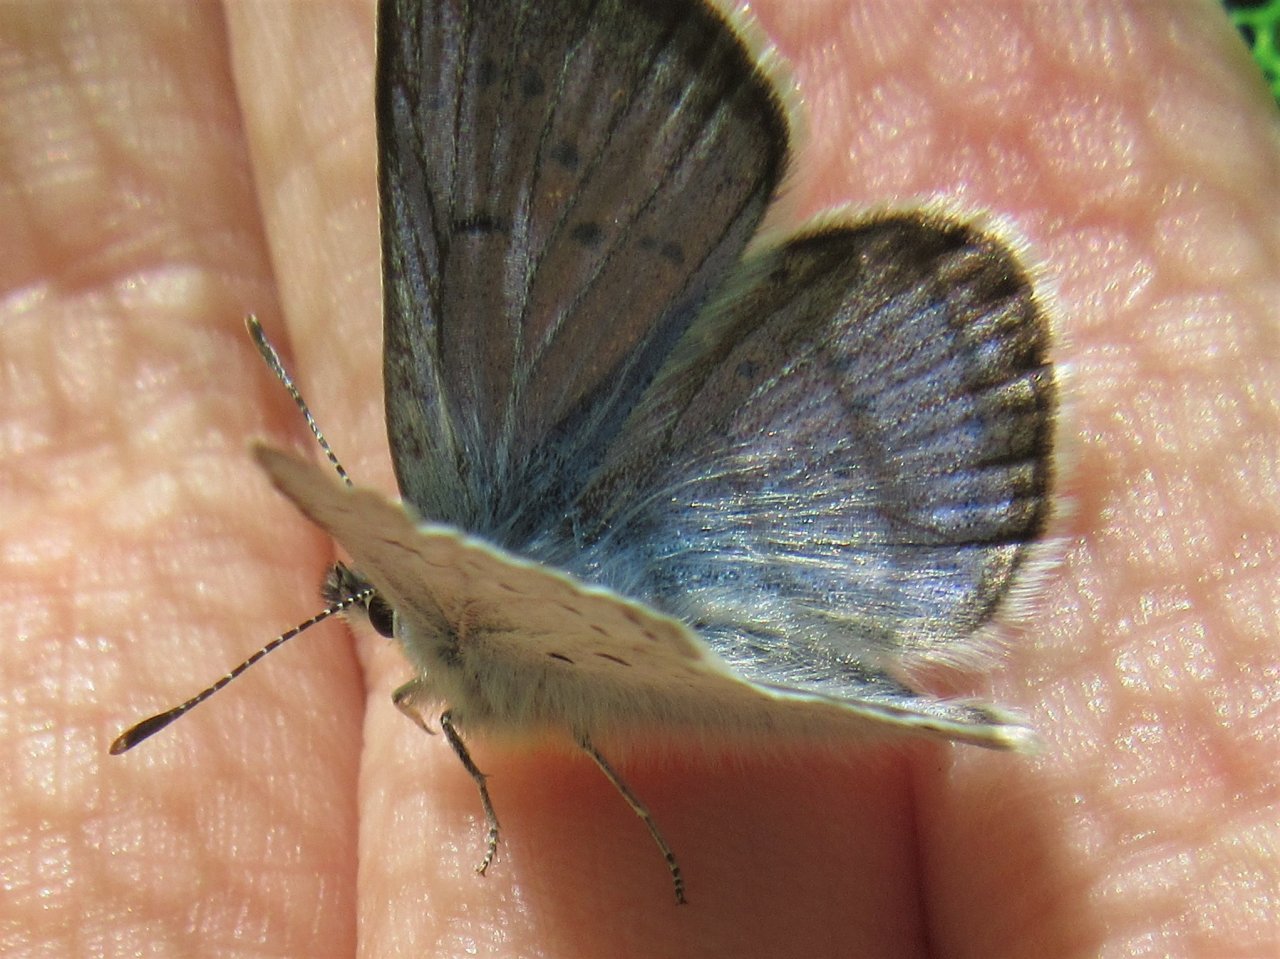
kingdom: Animalia
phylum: Arthropoda
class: Insecta
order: Lepidoptera
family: Lycaenidae
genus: Plebejus
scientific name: Plebejus saepiolus
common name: Greenish Blue
